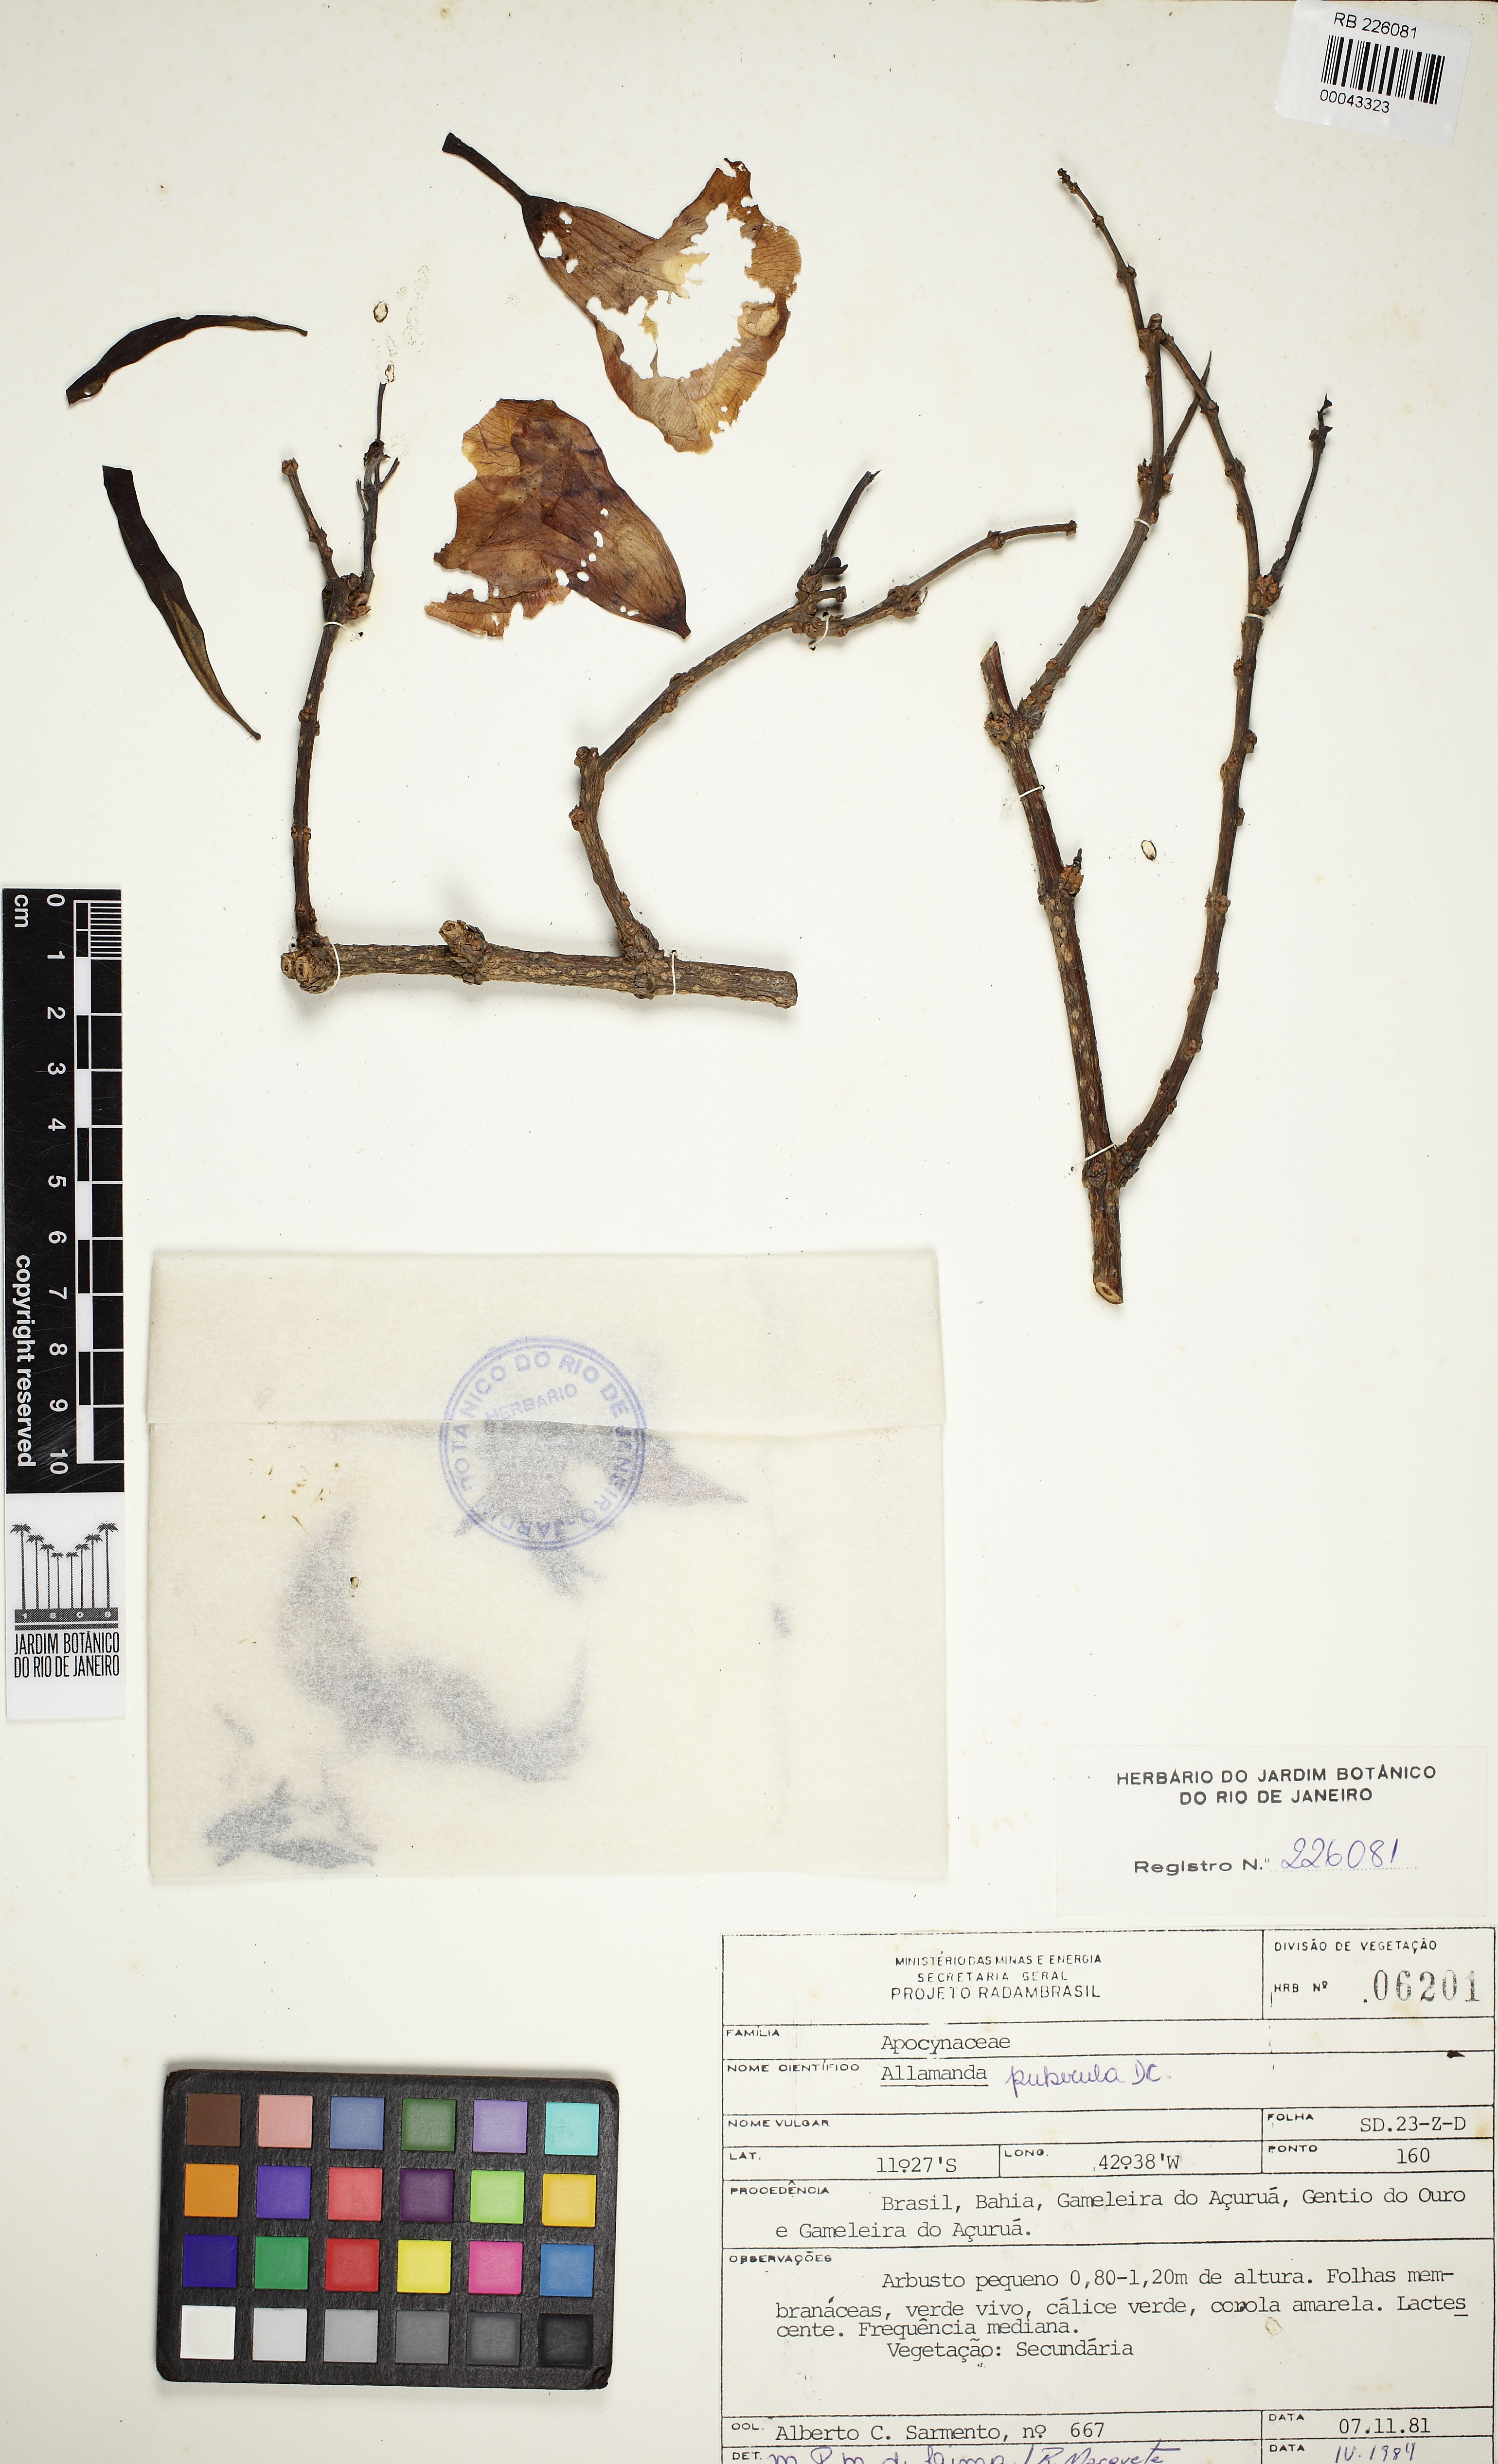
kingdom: Plantae
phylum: Tracheophyta
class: Magnoliopsida
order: Gentianales
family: Apocynaceae
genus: Allamanda
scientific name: Allamanda puberula
